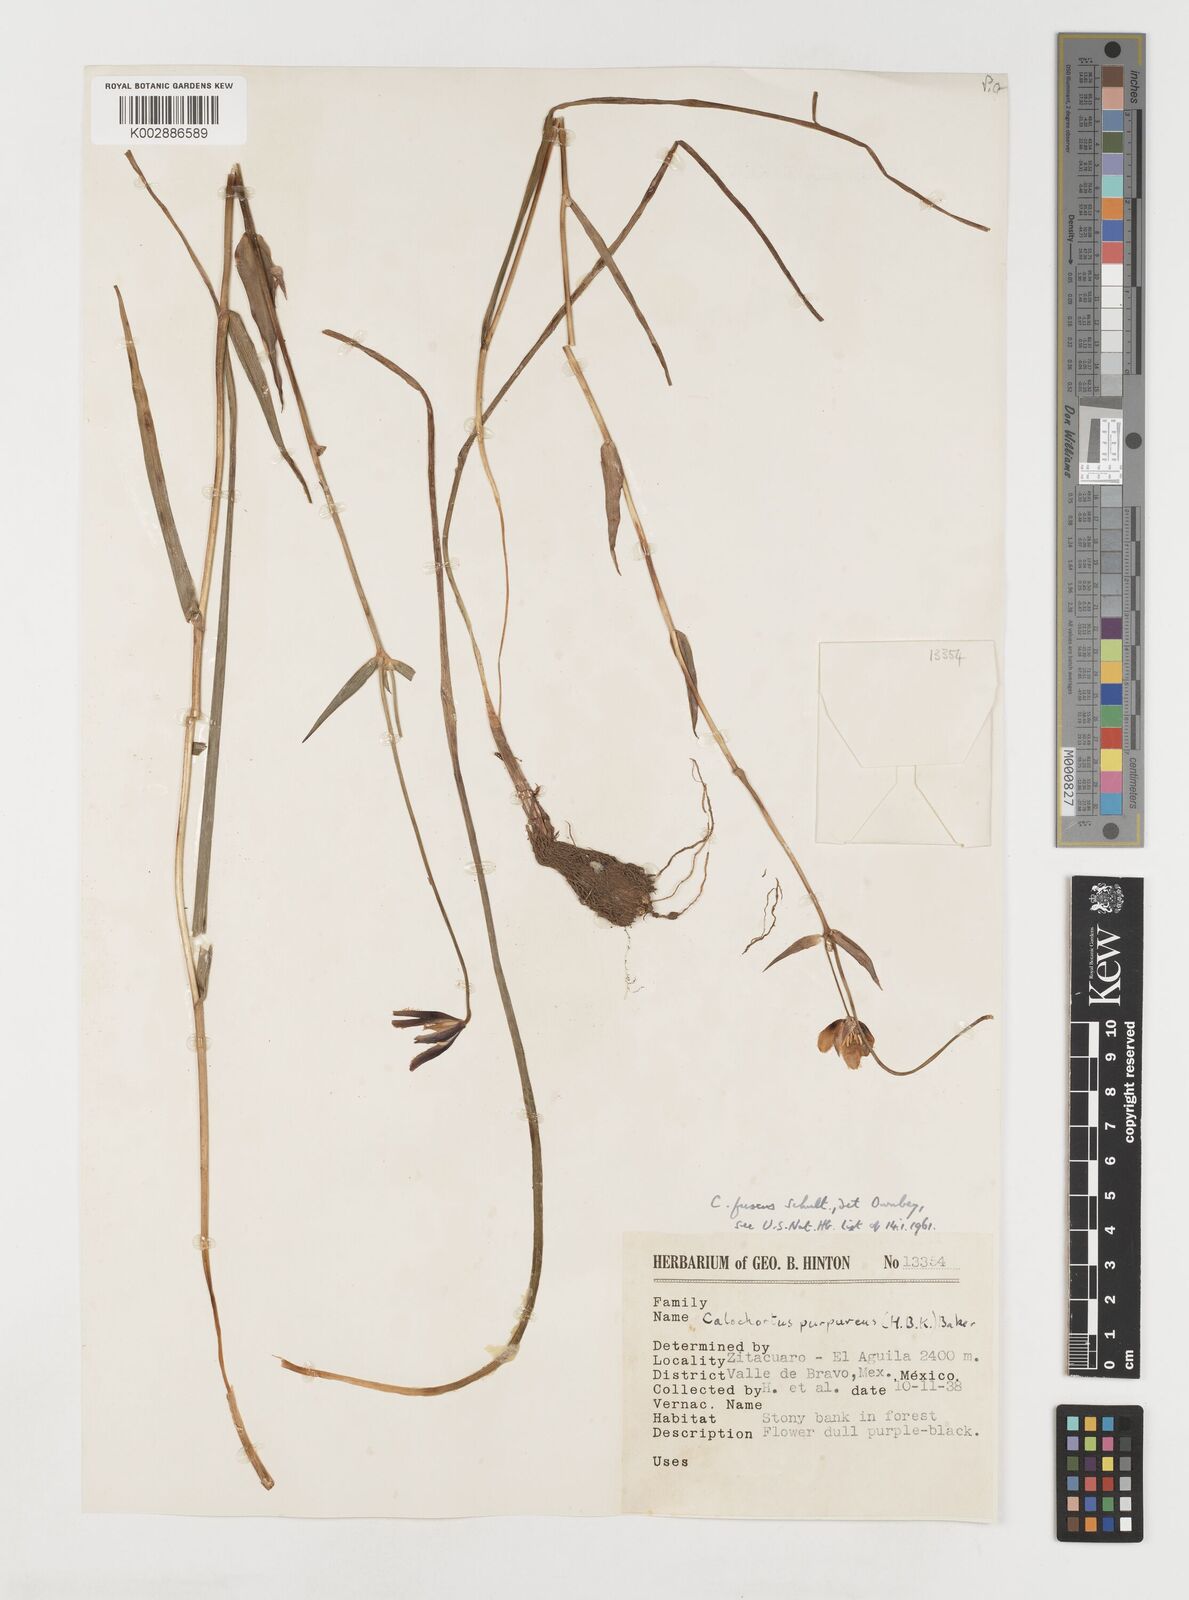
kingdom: Plantae
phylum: Tracheophyta
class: Liliopsida
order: Liliales
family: Liliaceae
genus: Calochortus
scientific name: Calochortus fuscus
